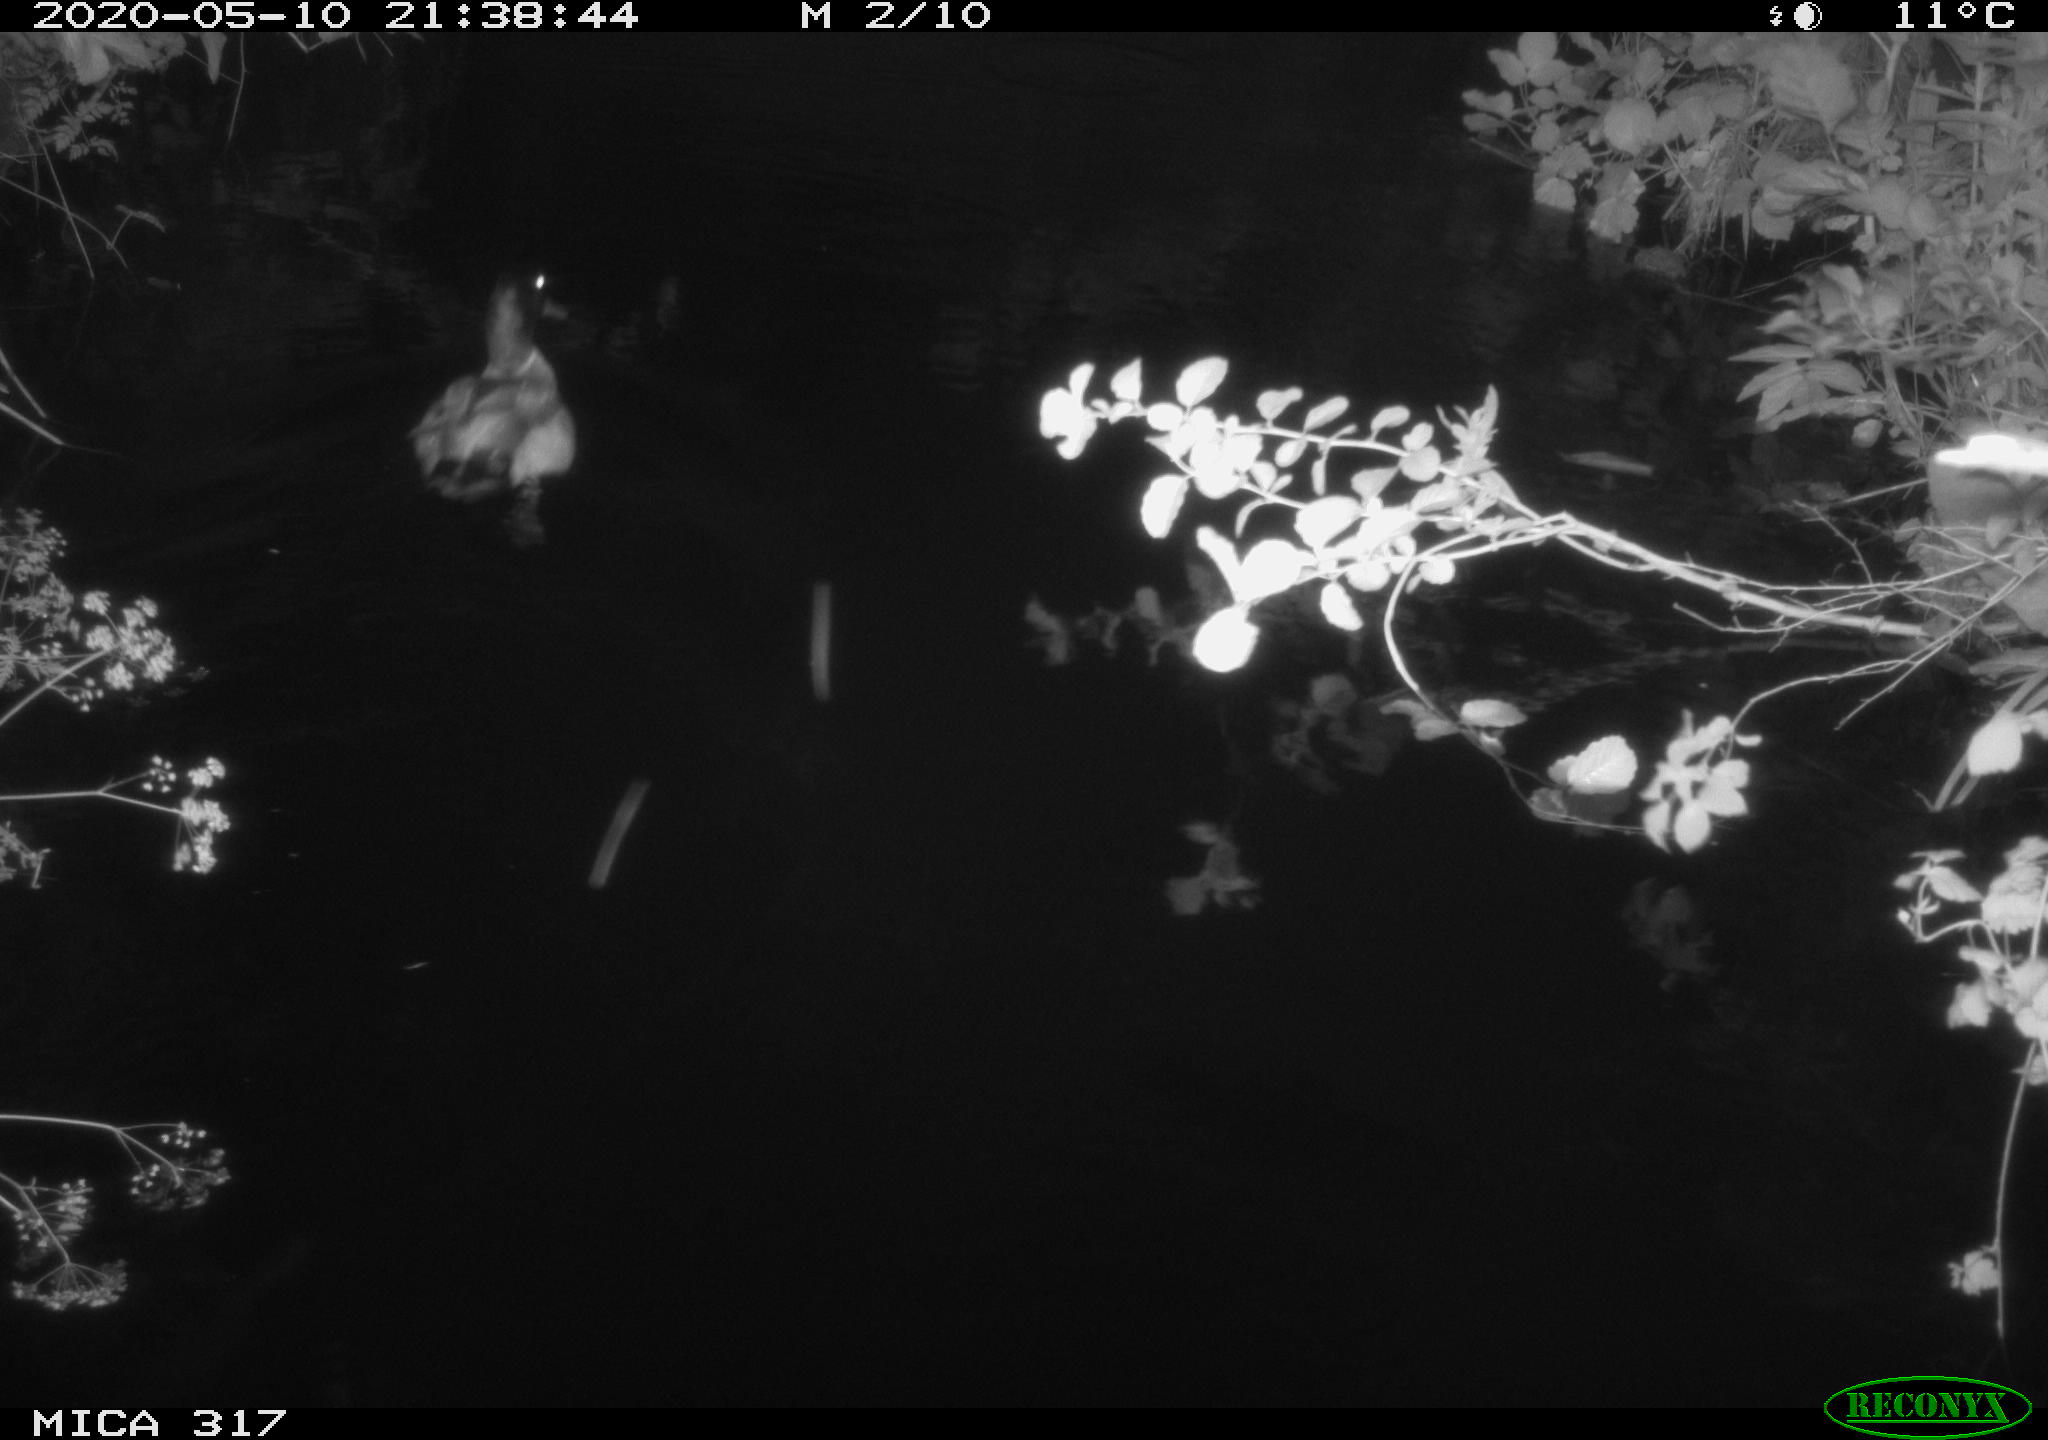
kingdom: Animalia
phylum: Chordata
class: Aves
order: Anseriformes
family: Anatidae
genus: Anas
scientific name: Anas platyrhynchos
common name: Mallard
